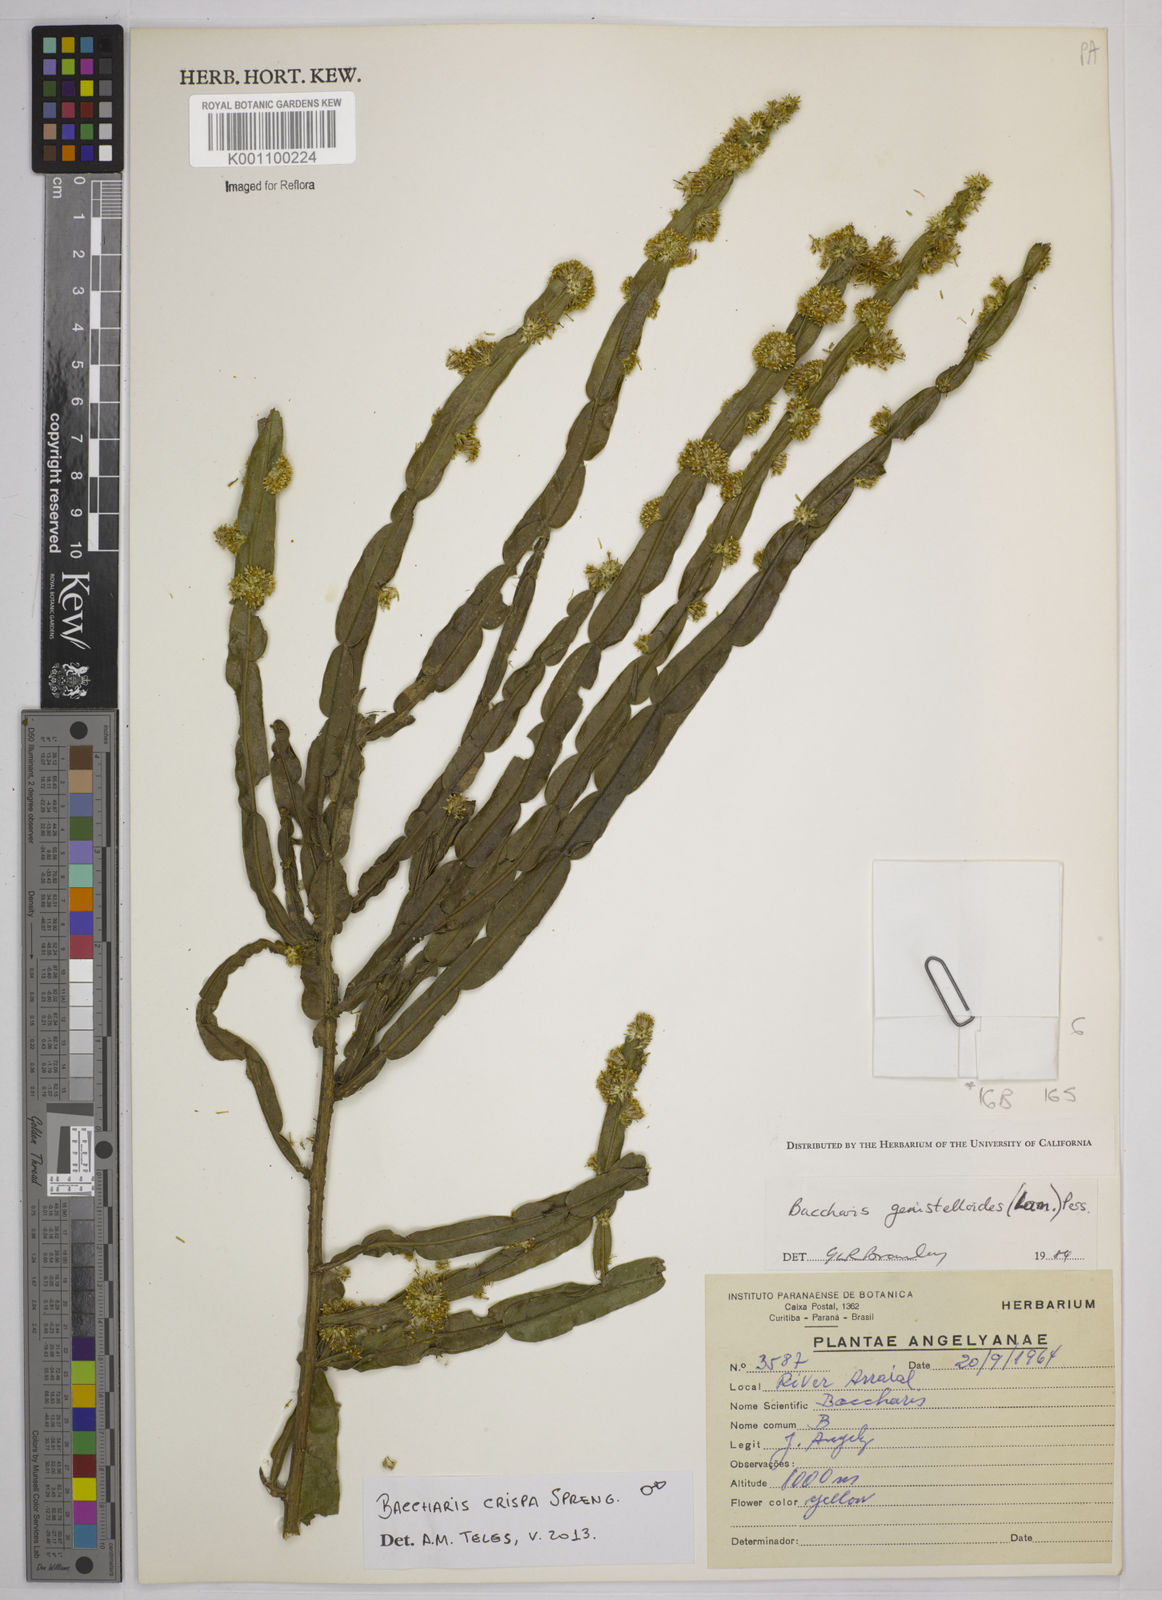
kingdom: Plantae
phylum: Tracheophyta
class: Magnoliopsida
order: Asterales
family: Asteraceae
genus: Baccharis
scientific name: Baccharis
